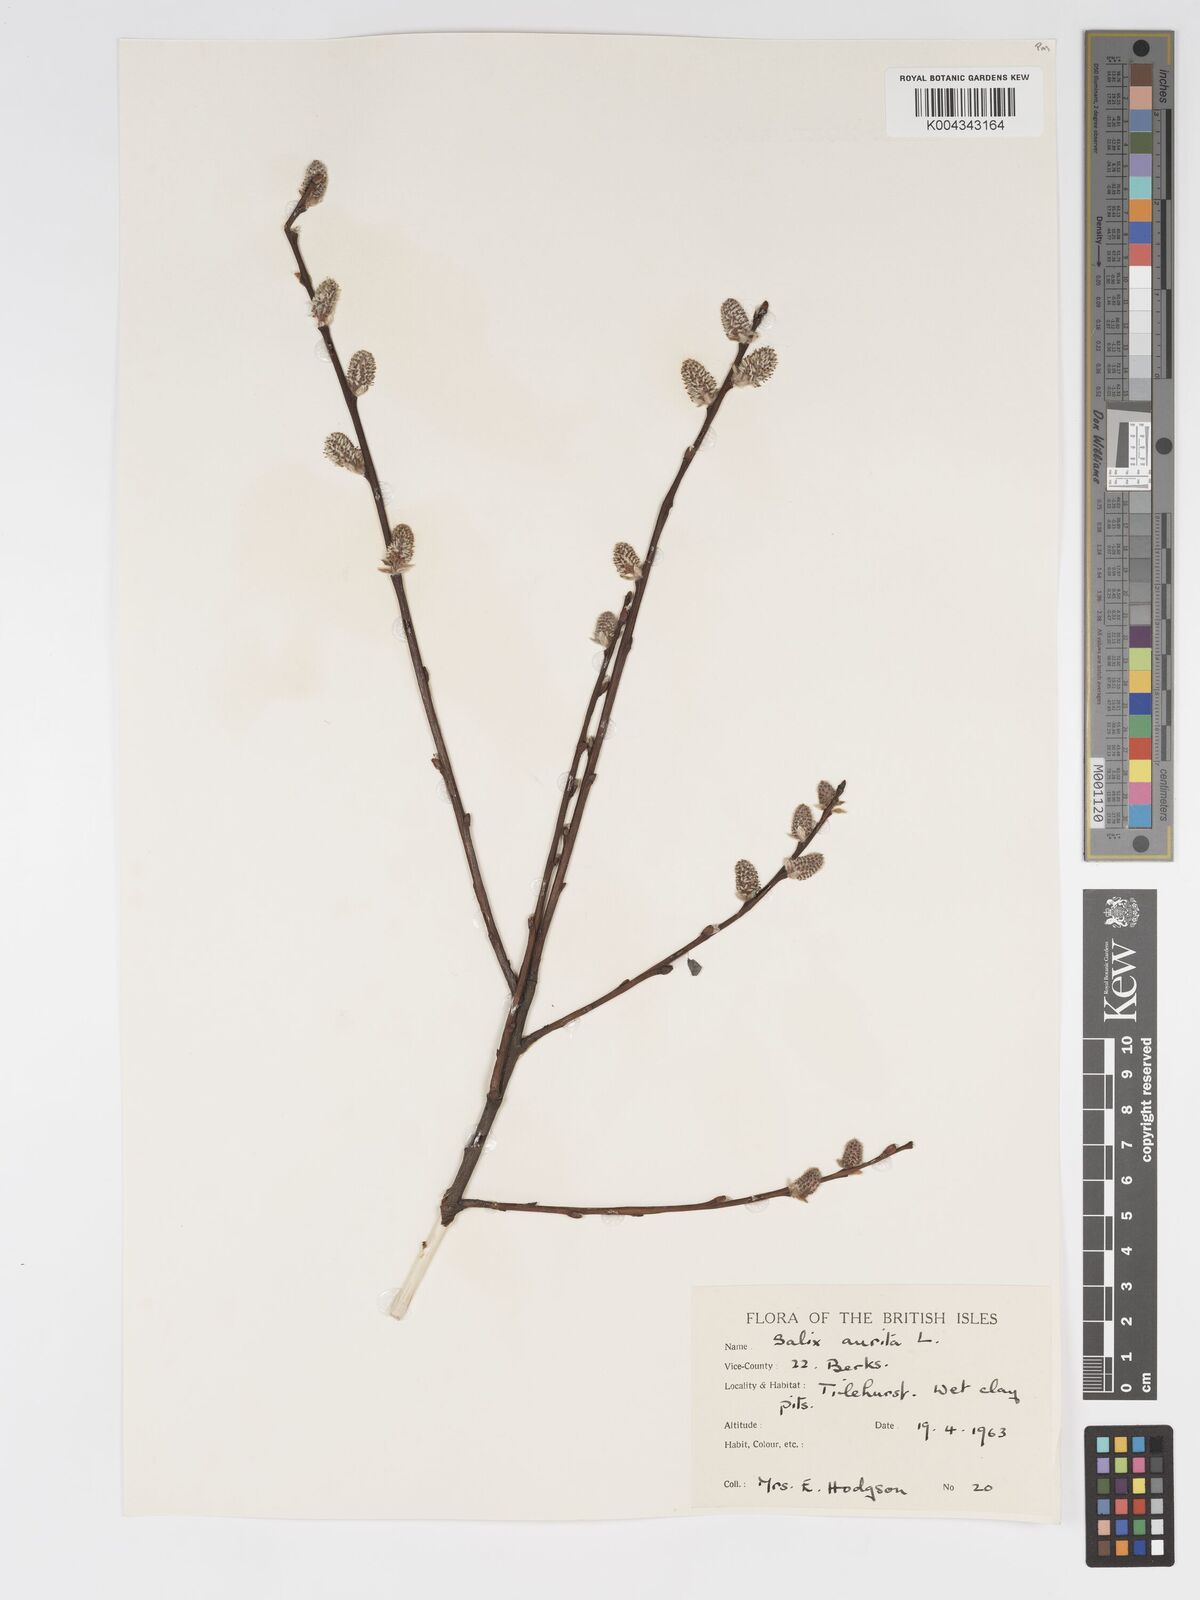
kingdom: Plantae
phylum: Tracheophyta
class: Magnoliopsida
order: Malpighiales
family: Salicaceae
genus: Salix
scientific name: Salix aurita
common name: Eared willow
